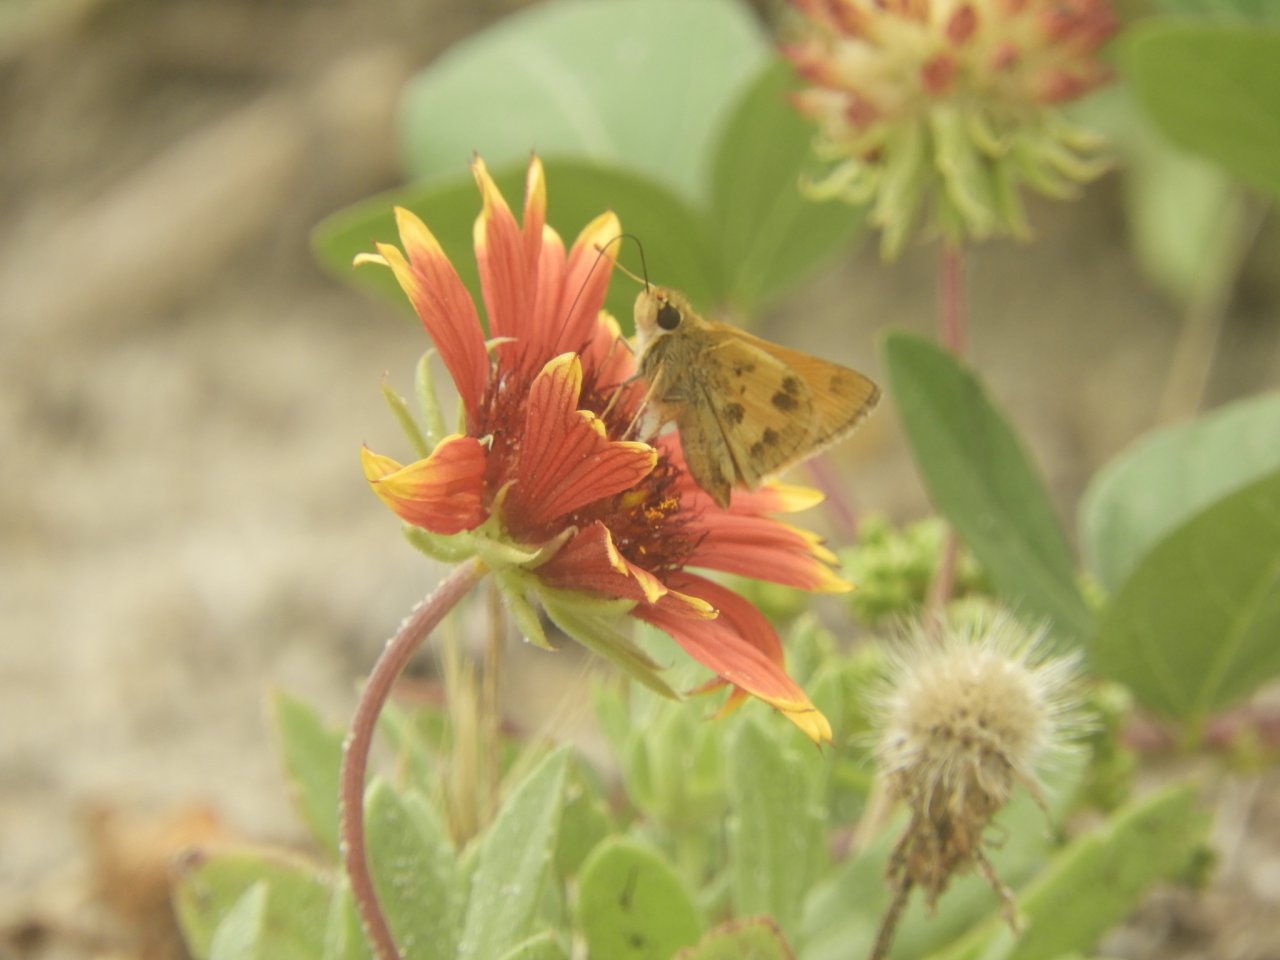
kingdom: Animalia
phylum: Arthropoda
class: Insecta
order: Lepidoptera
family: Hesperiidae
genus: Polites
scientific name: Polites vibex
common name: Whirlabout
